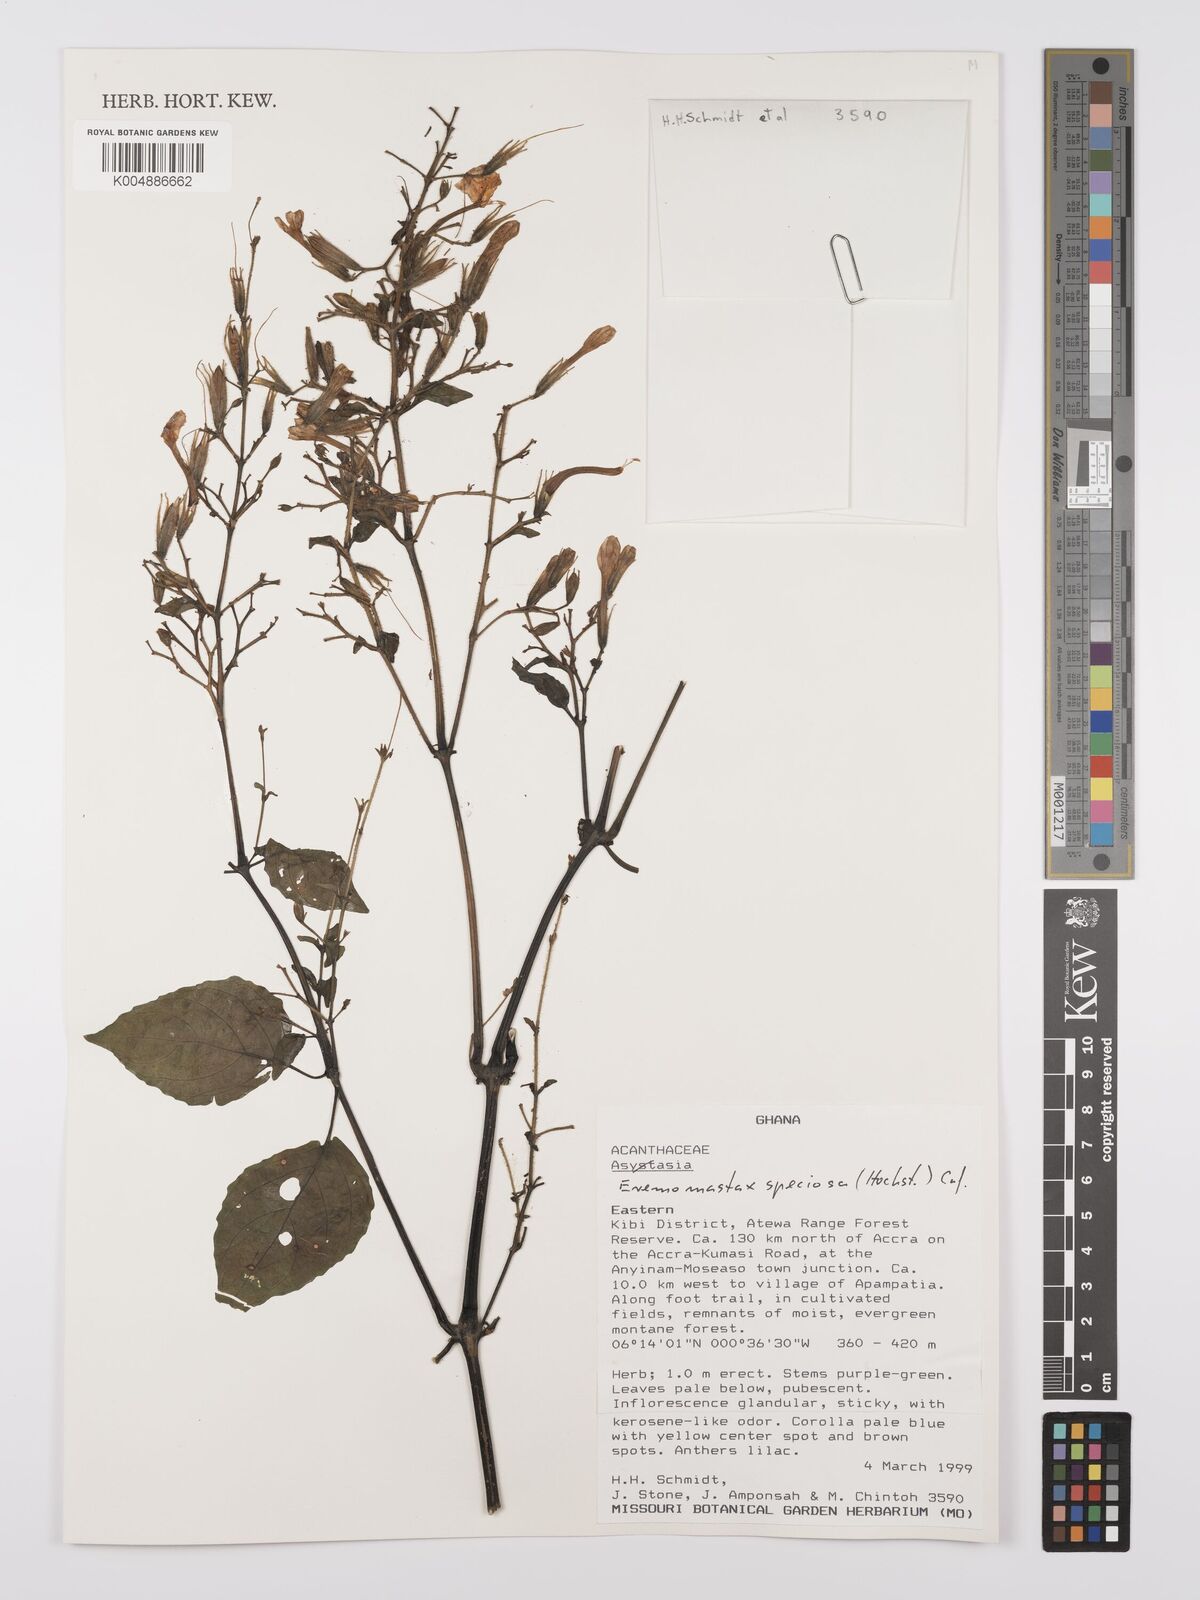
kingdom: Plantae
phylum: Tracheophyta
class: Magnoliopsida
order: Lamiales
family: Acanthaceae
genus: Eremomastax
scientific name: Eremomastax speciosa
